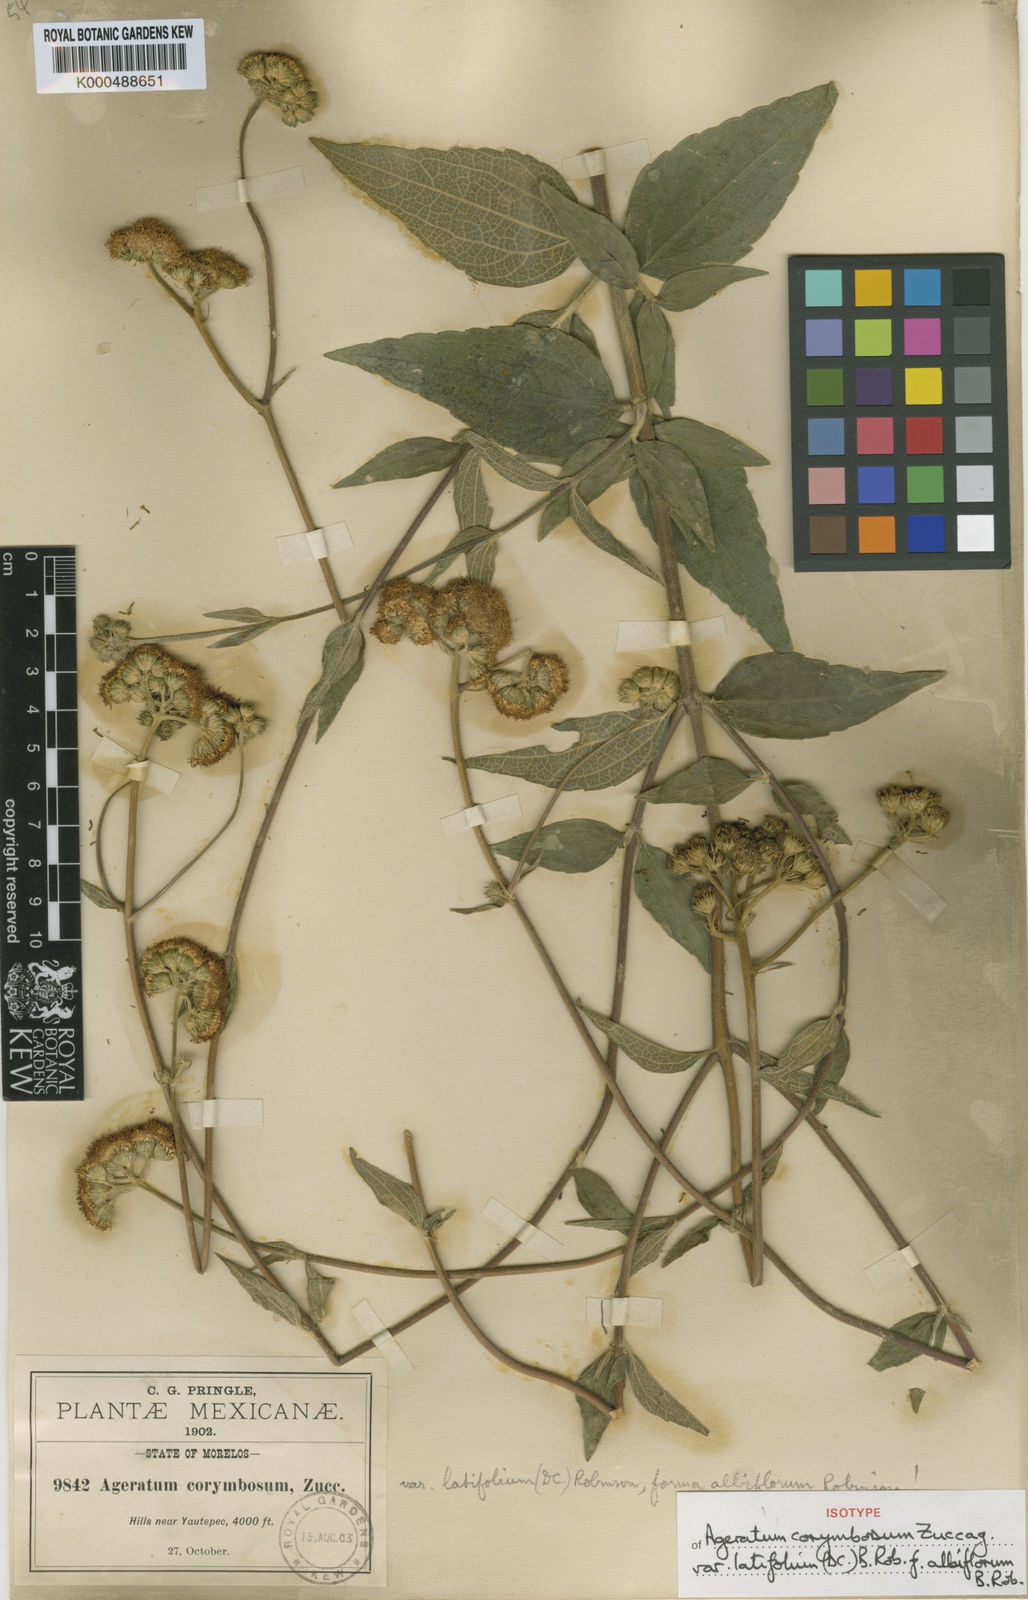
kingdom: Plantae
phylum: Tracheophyta
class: Magnoliopsida
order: Asterales
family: Asteraceae
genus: Ageratum
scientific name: Ageratum corymbosum
